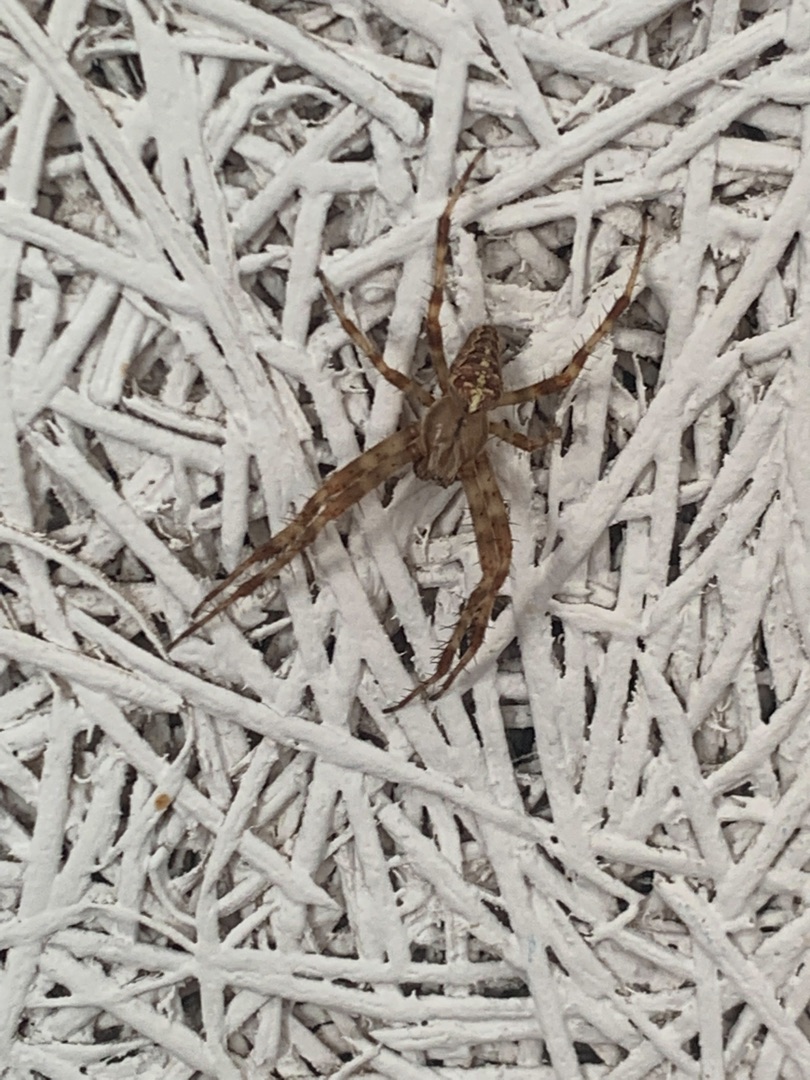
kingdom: Animalia
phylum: Arthropoda
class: Arachnida
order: Araneae
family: Araneidae
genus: Araneus
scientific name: Araneus diadematus
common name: Korsedderkop
